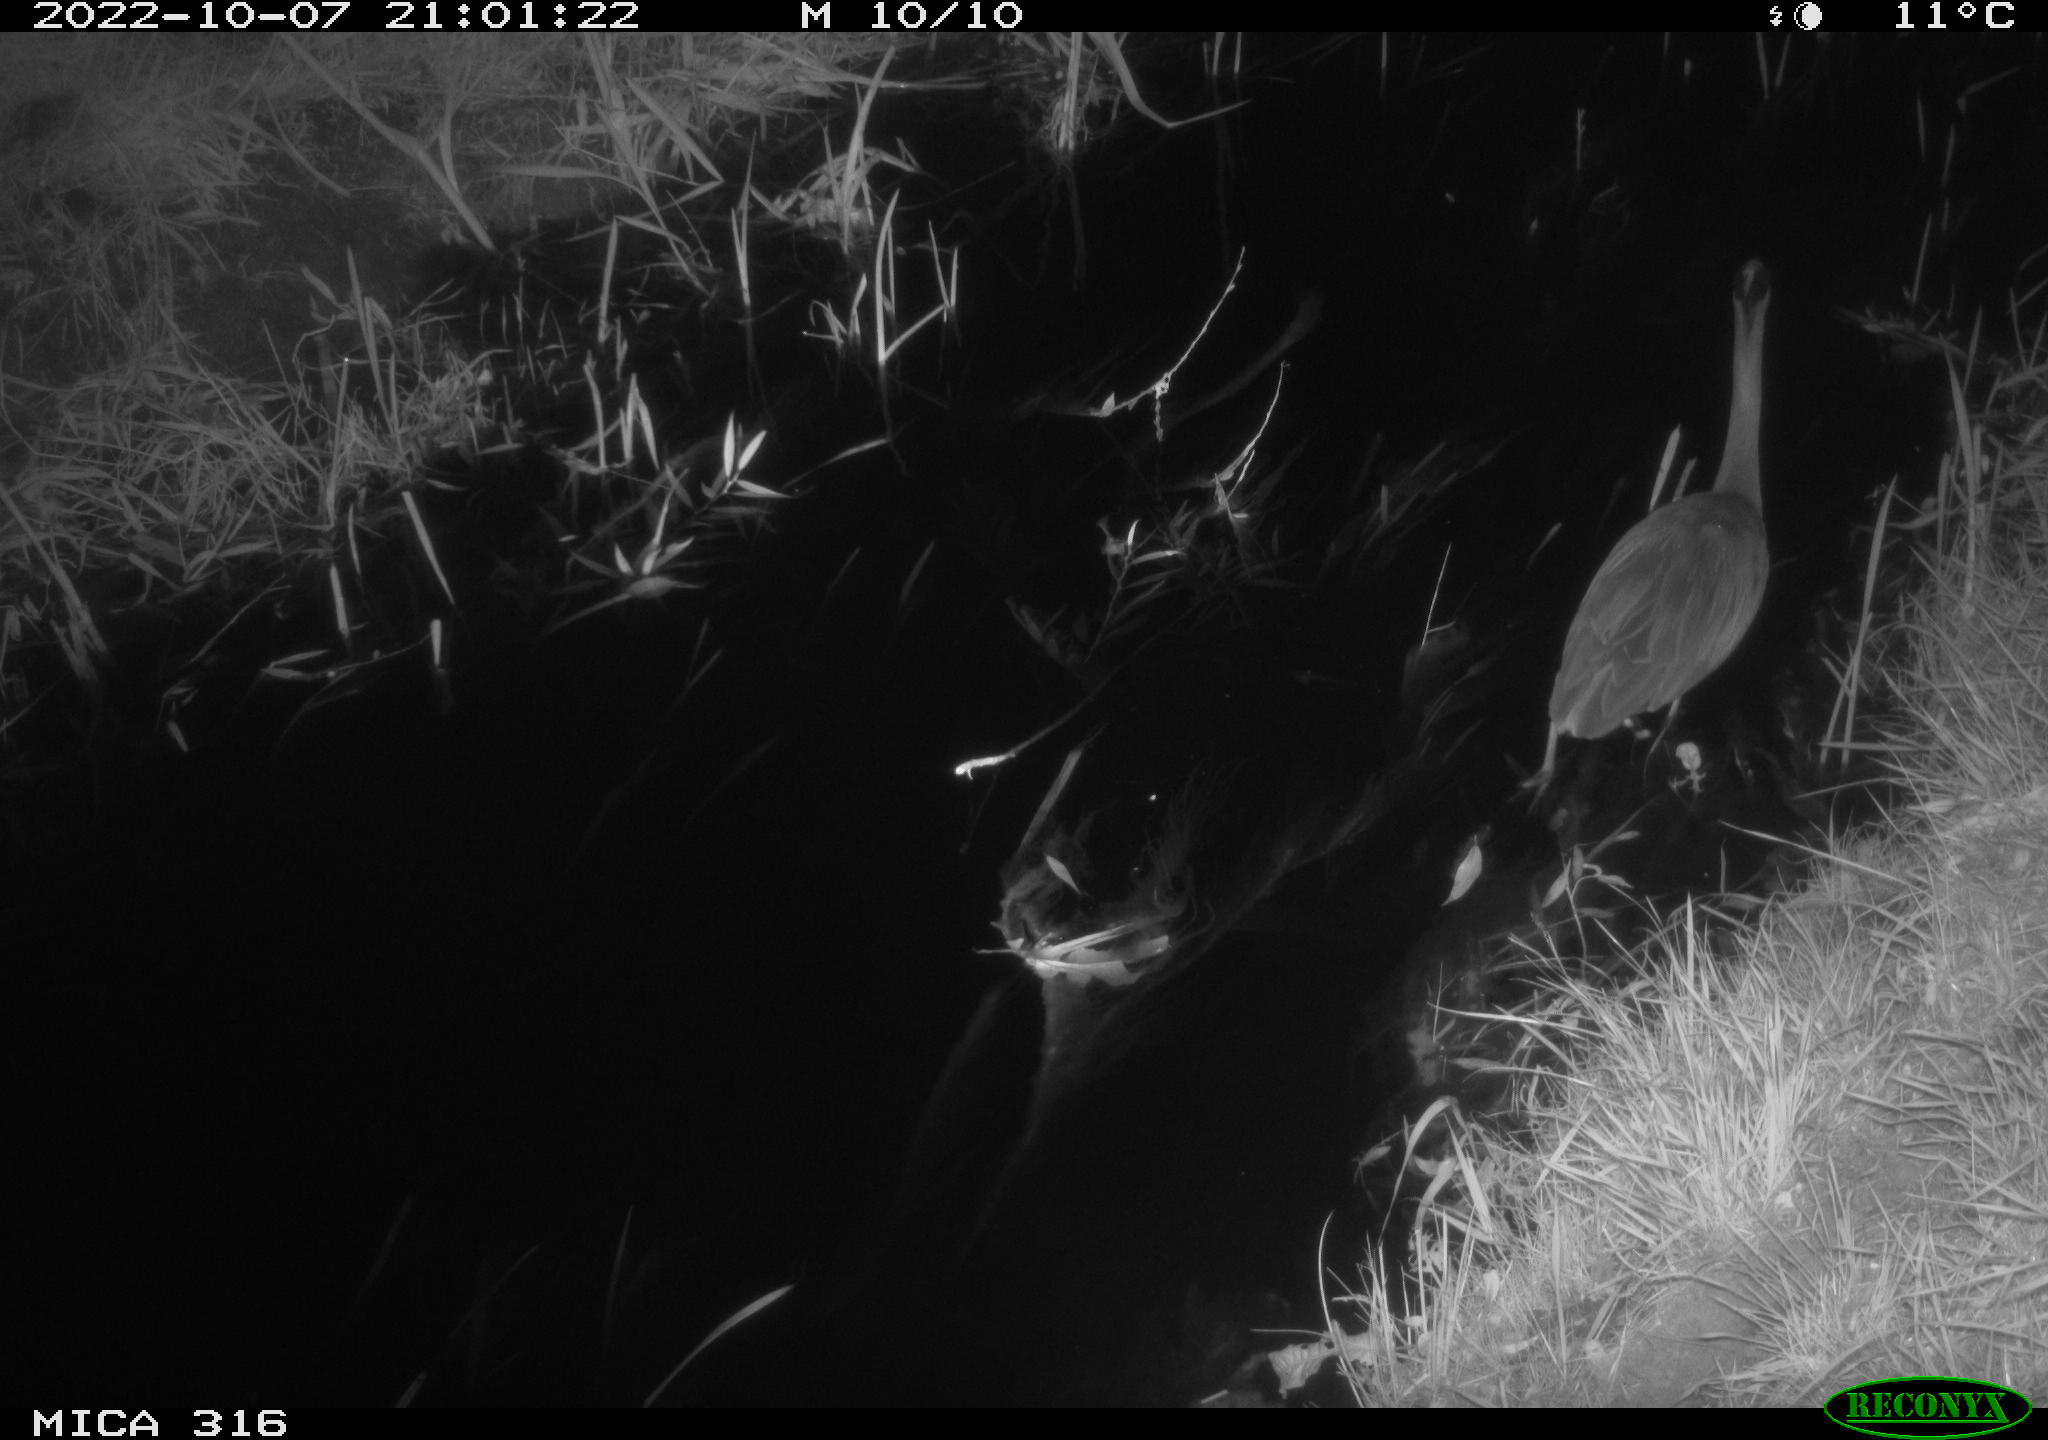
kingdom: Animalia
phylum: Chordata
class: Aves
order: Pelecaniformes
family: Ardeidae
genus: Ardea
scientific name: Ardea cinerea
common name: Grey heron
